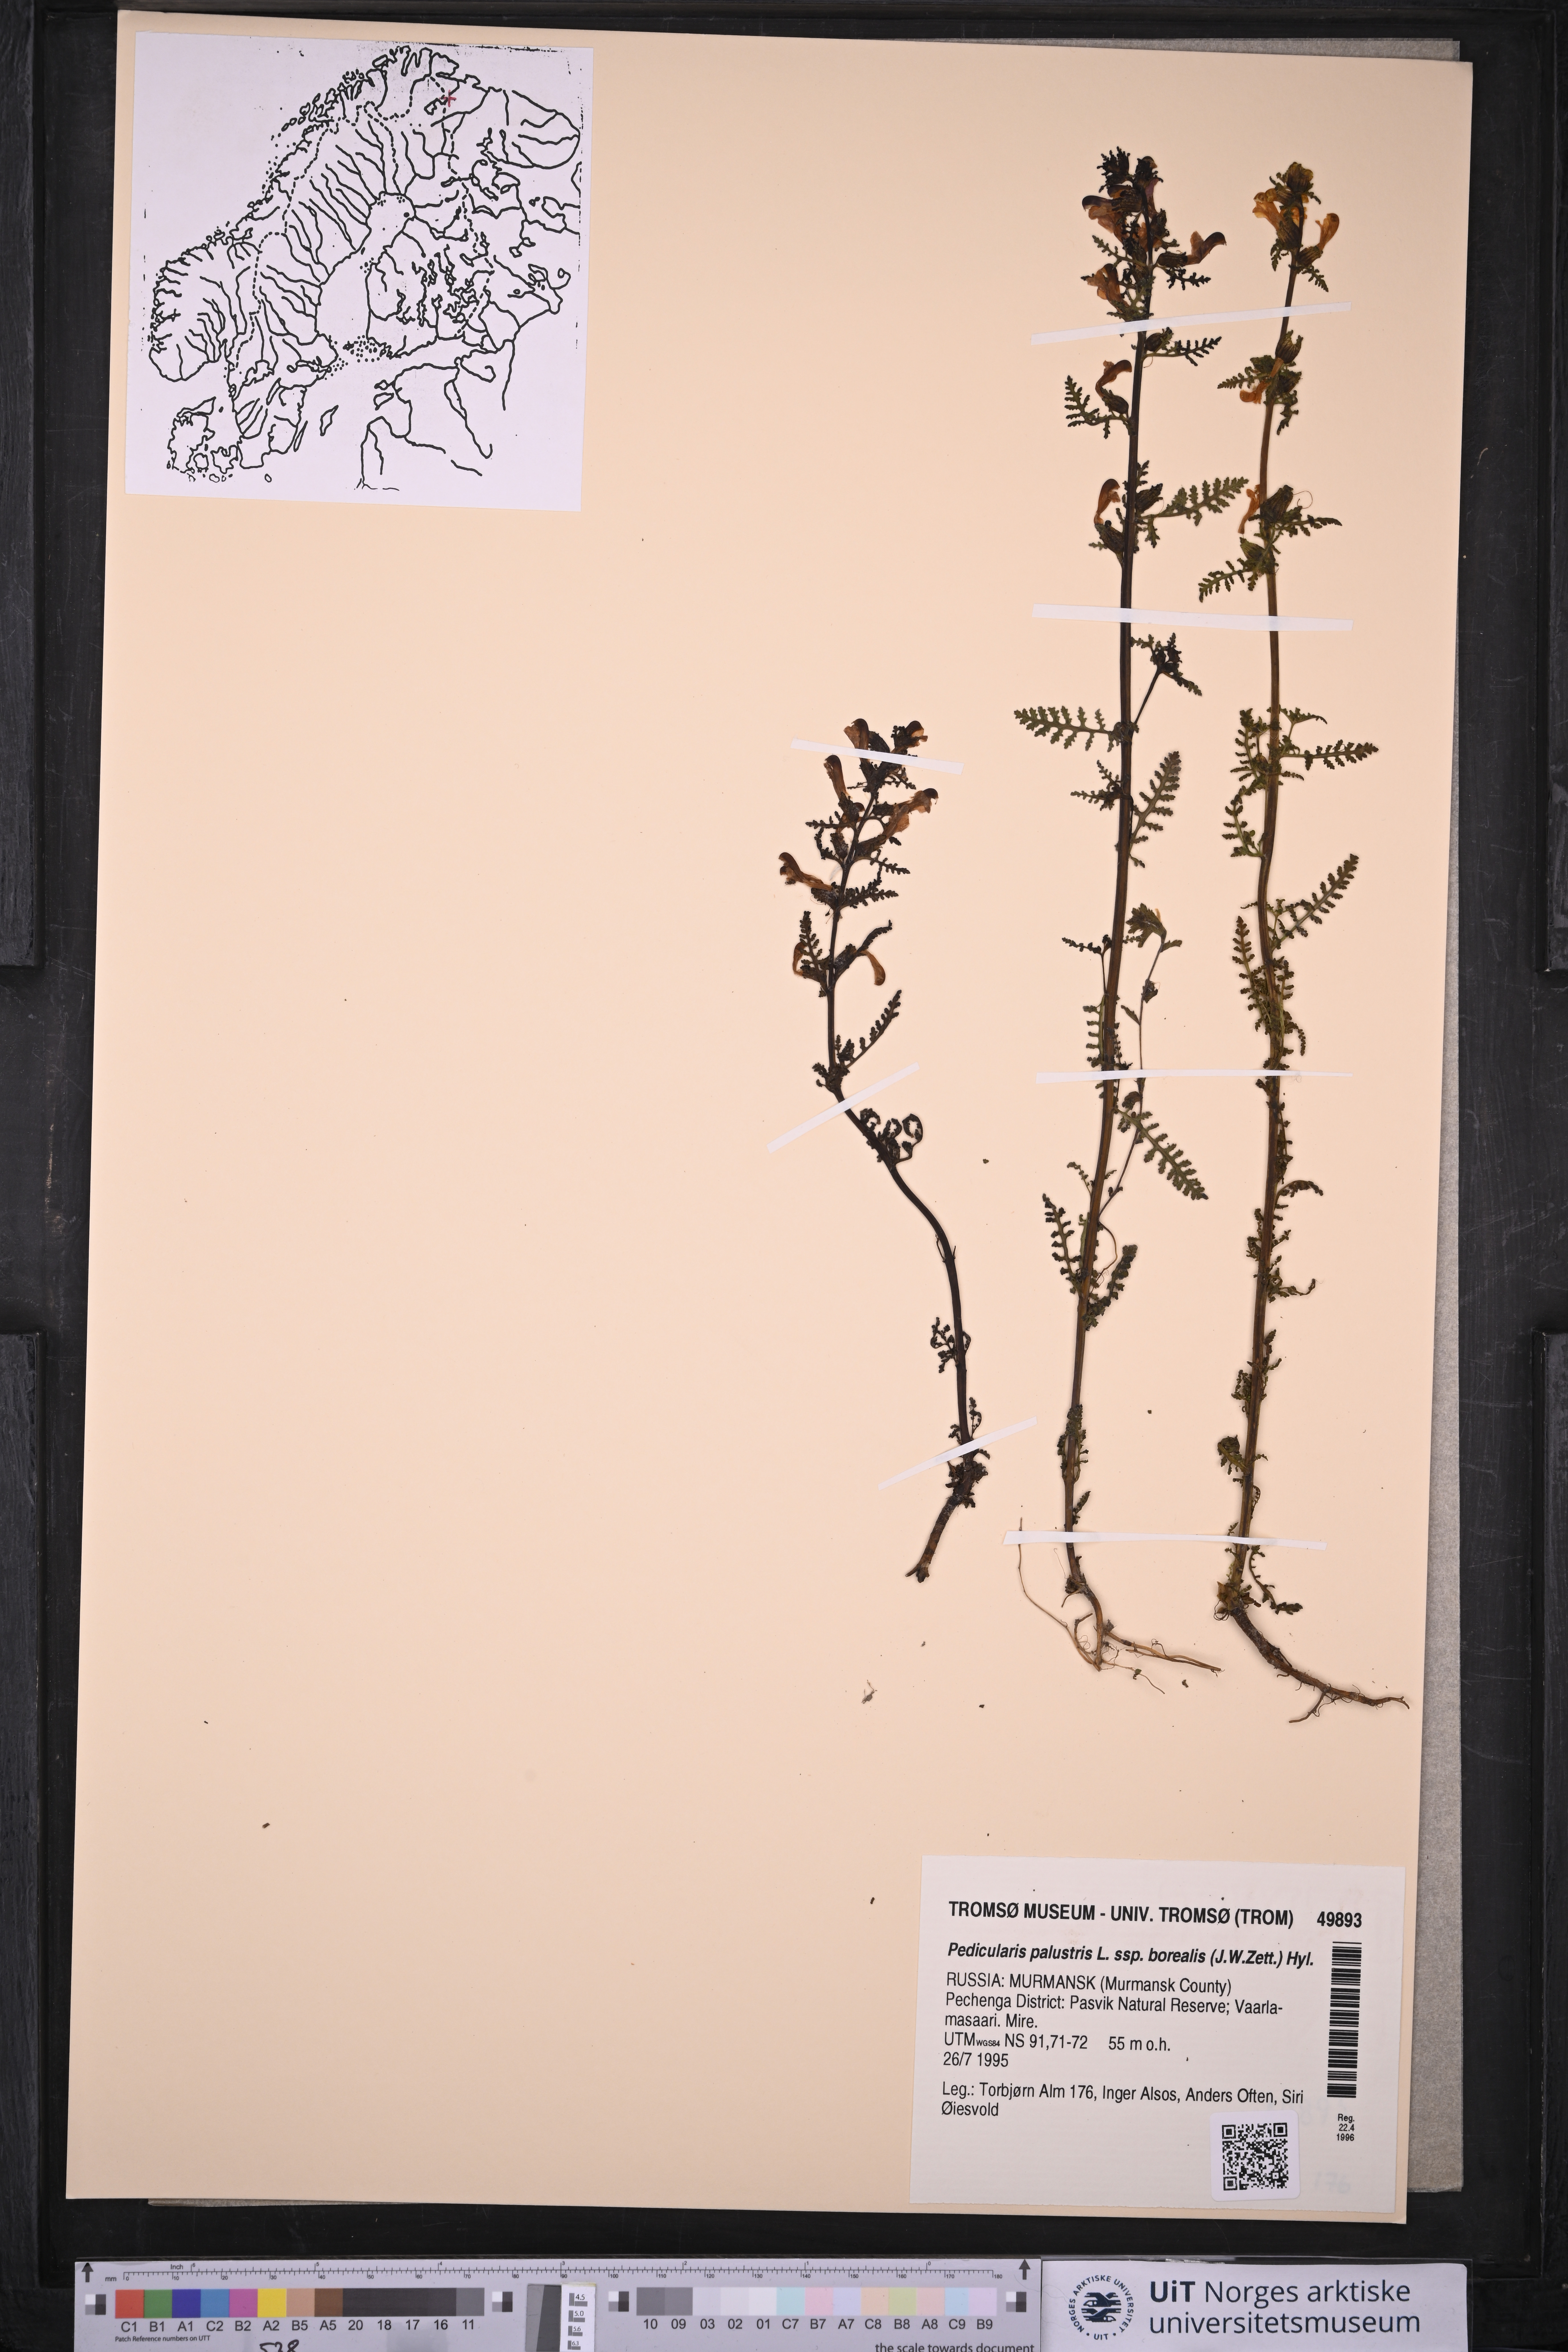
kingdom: Plantae
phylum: Tracheophyta
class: Magnoliopsida
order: Lamiales
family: Orobanchaceae
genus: Pedicularis
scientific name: Pedicularis palustris
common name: Marsh lousewort
